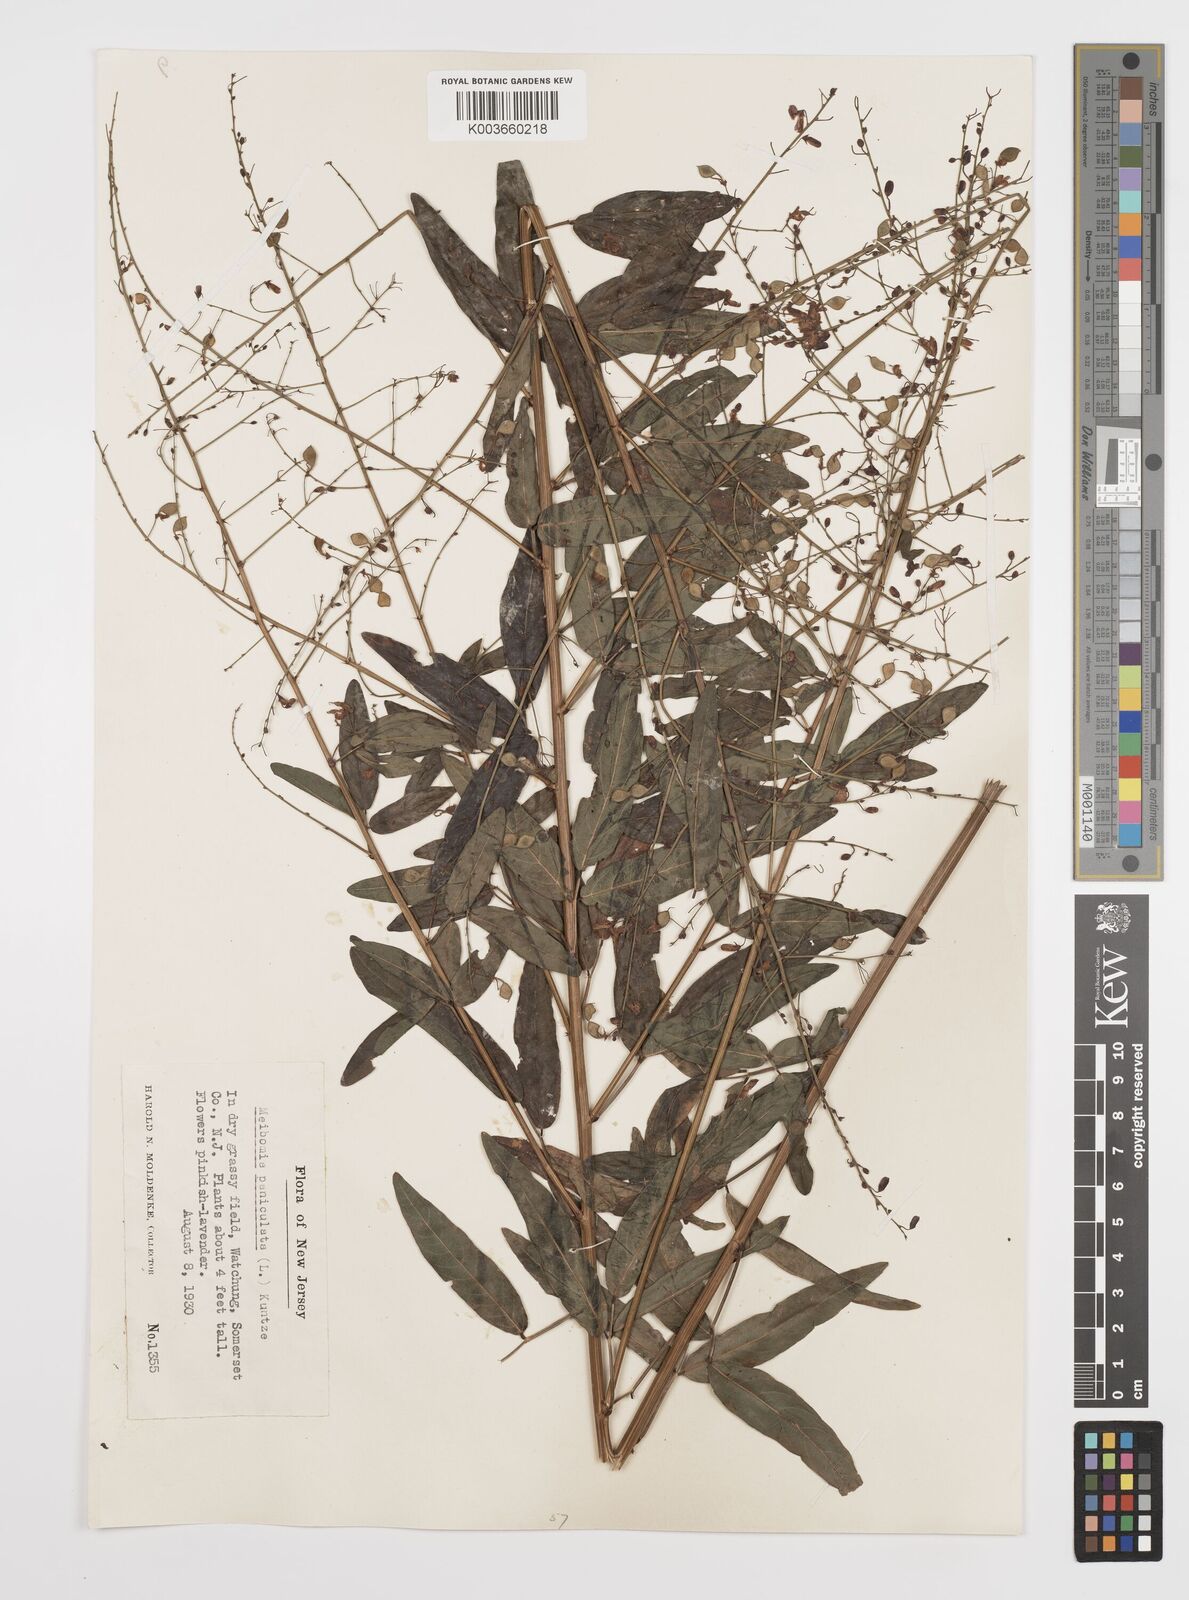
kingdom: Plantae
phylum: Tracheophyta
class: Magnoliopsida
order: Fabales
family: Fabaceae
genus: Desmodium
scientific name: Desmodium paniculatum
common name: Panicled tick-clover
